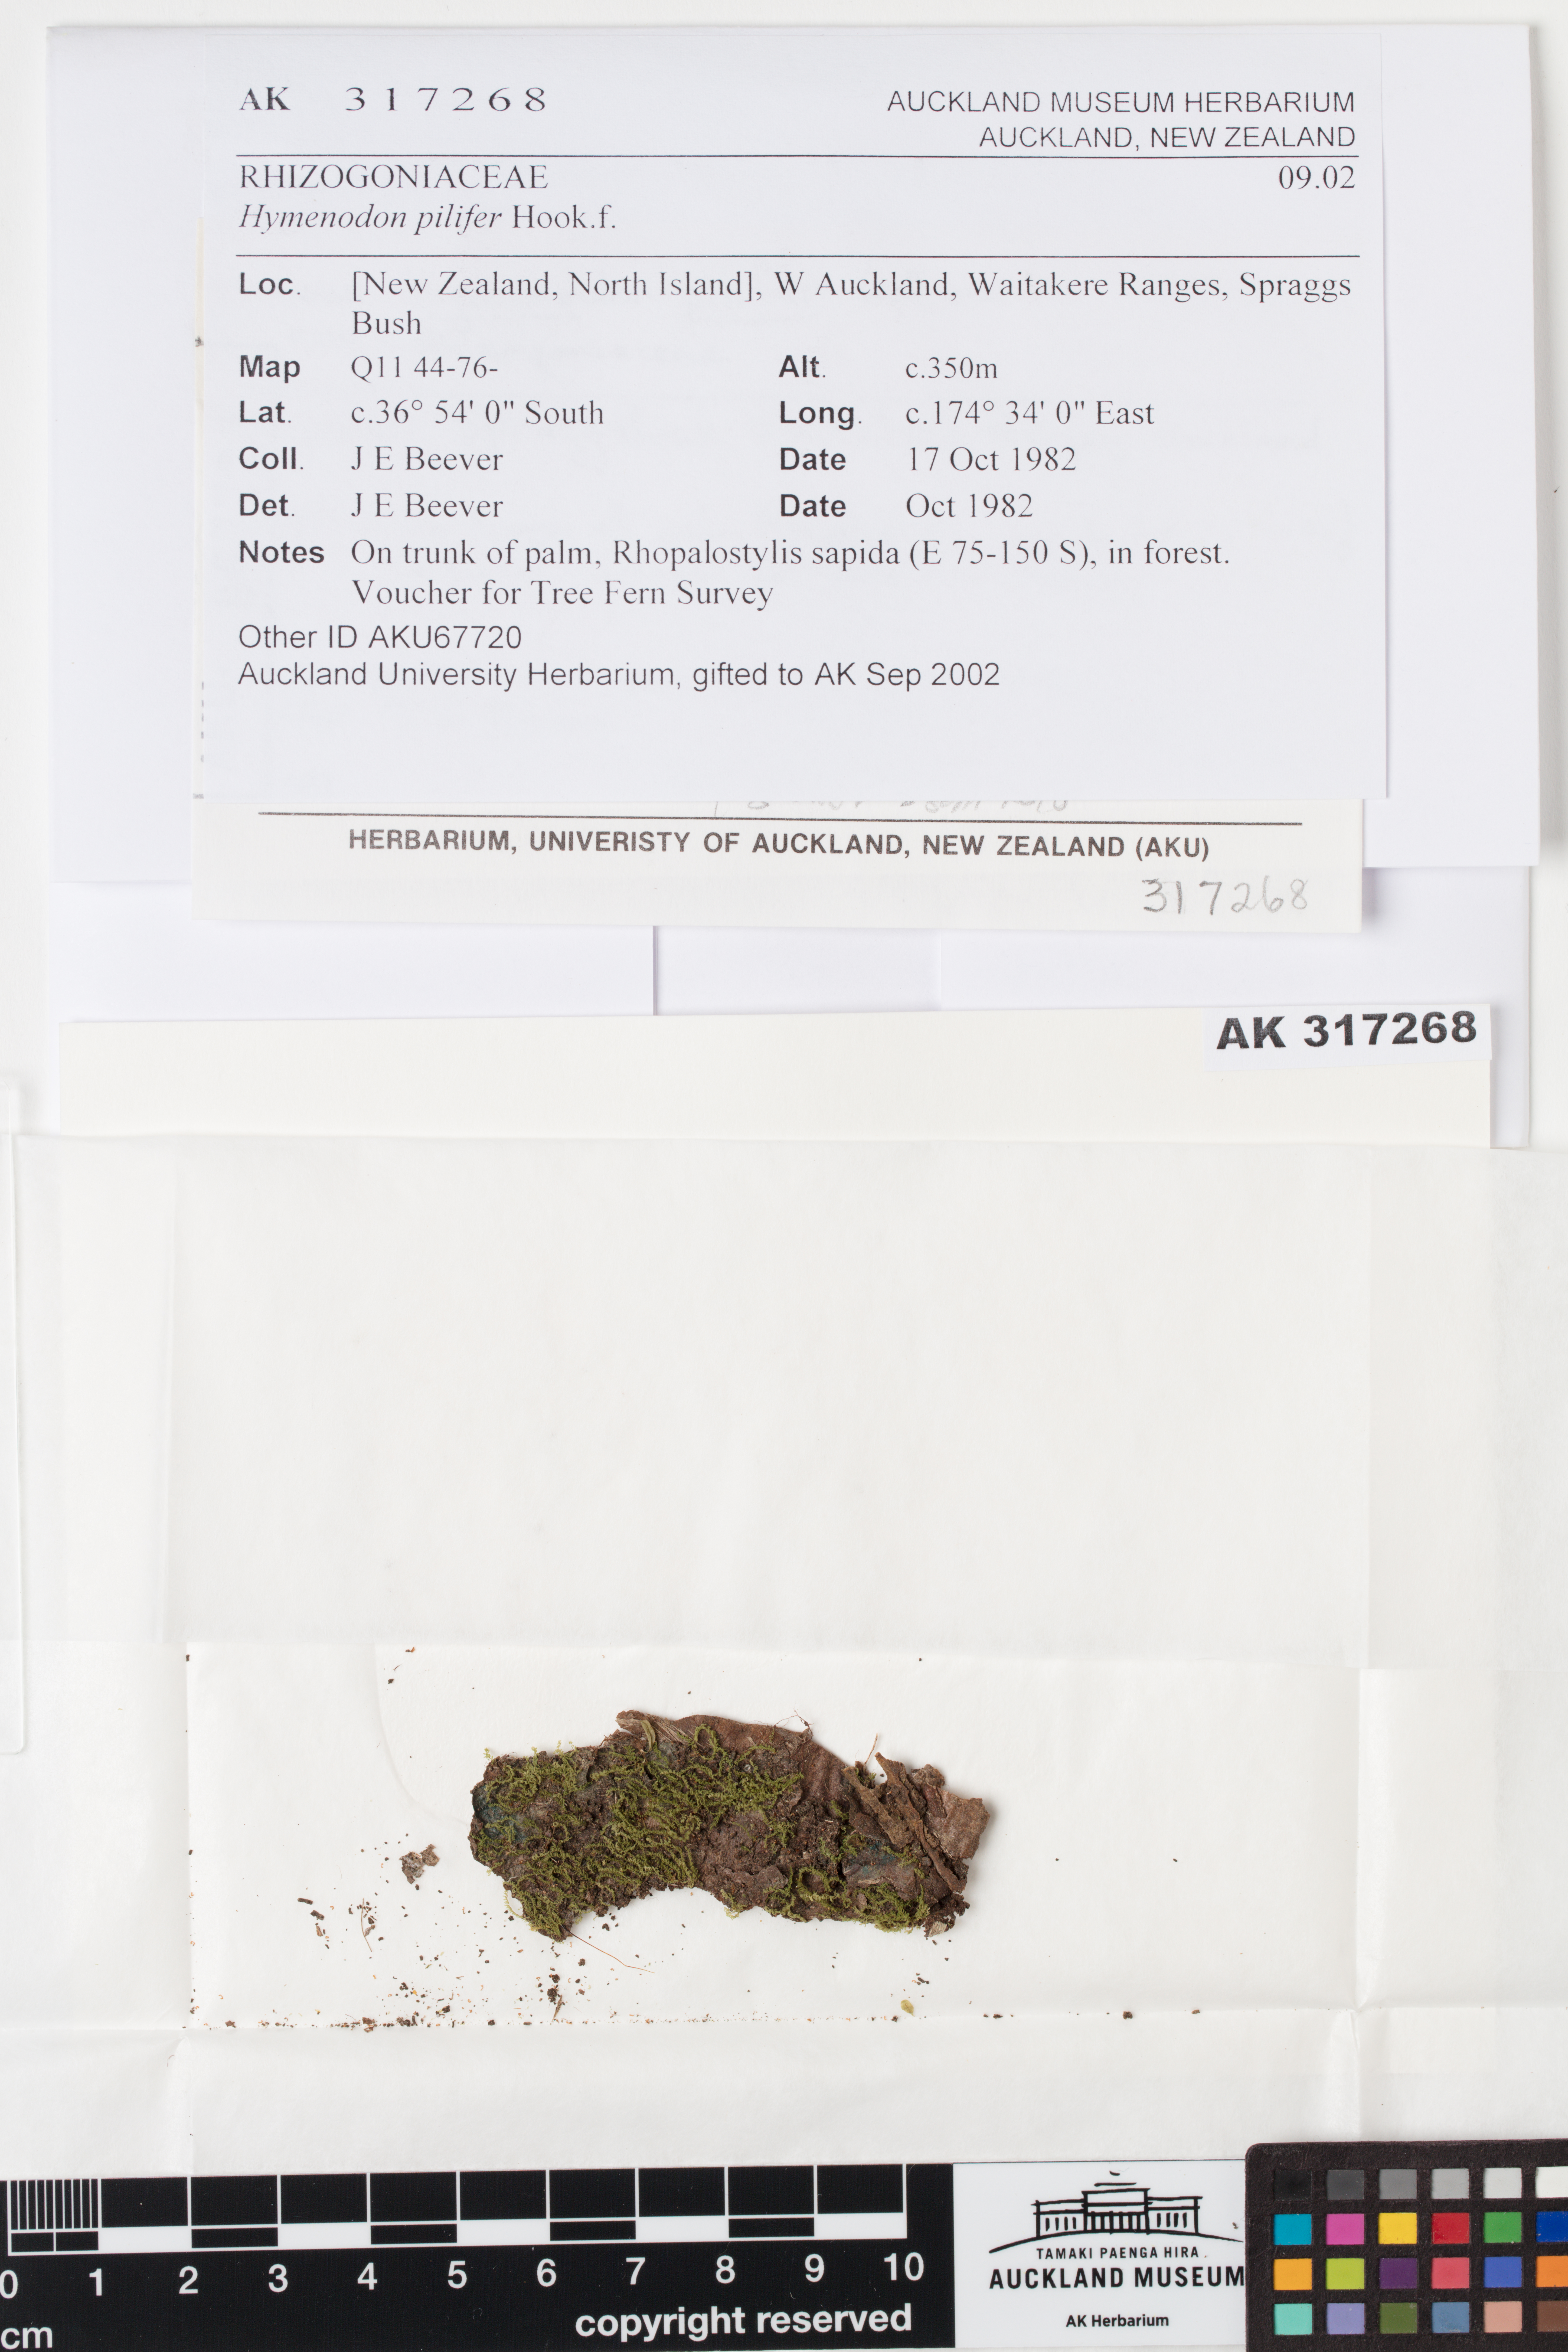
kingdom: Plantae
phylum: Bryophyta
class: Bryopsida
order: Orthodontiales
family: Orthodontiaceae
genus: Hymenodon
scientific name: Hymenodon pilifer
